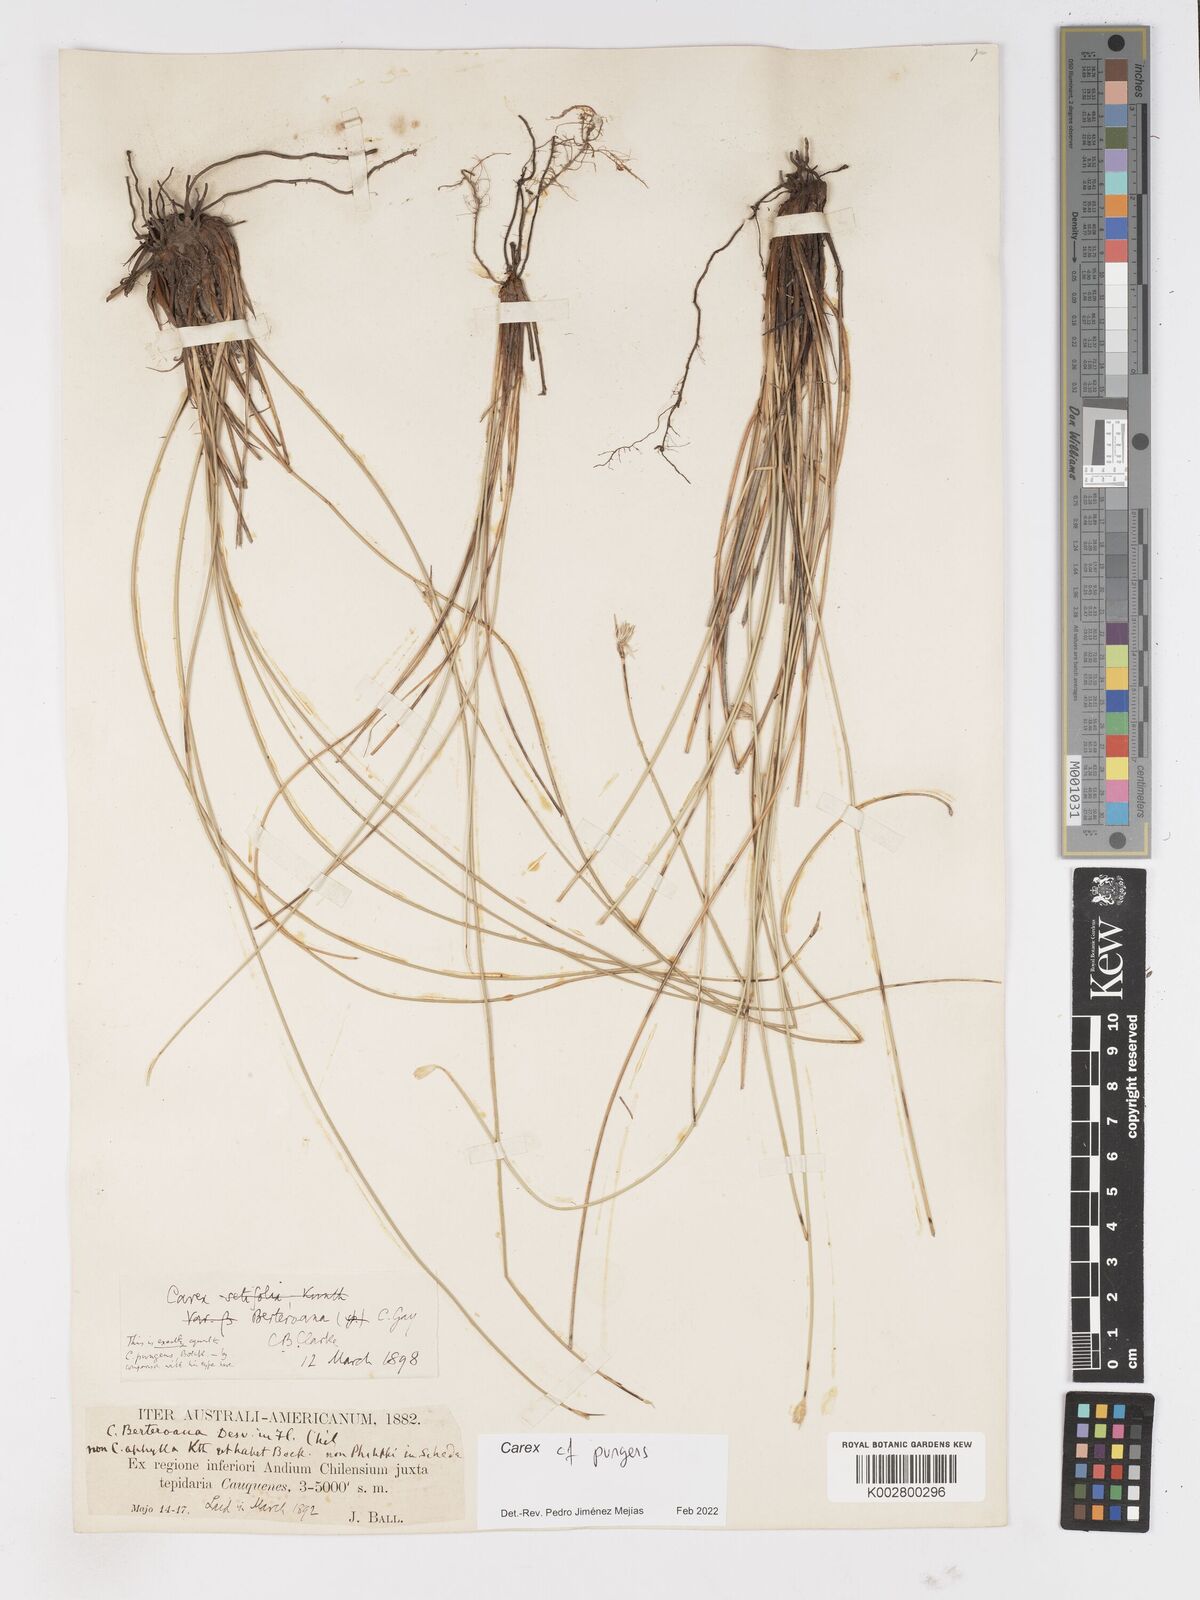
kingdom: Plantae
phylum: Tracheophyta
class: Liliopsida
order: Poales
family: Cyperaceae
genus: Carex
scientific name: Carex setifolia
